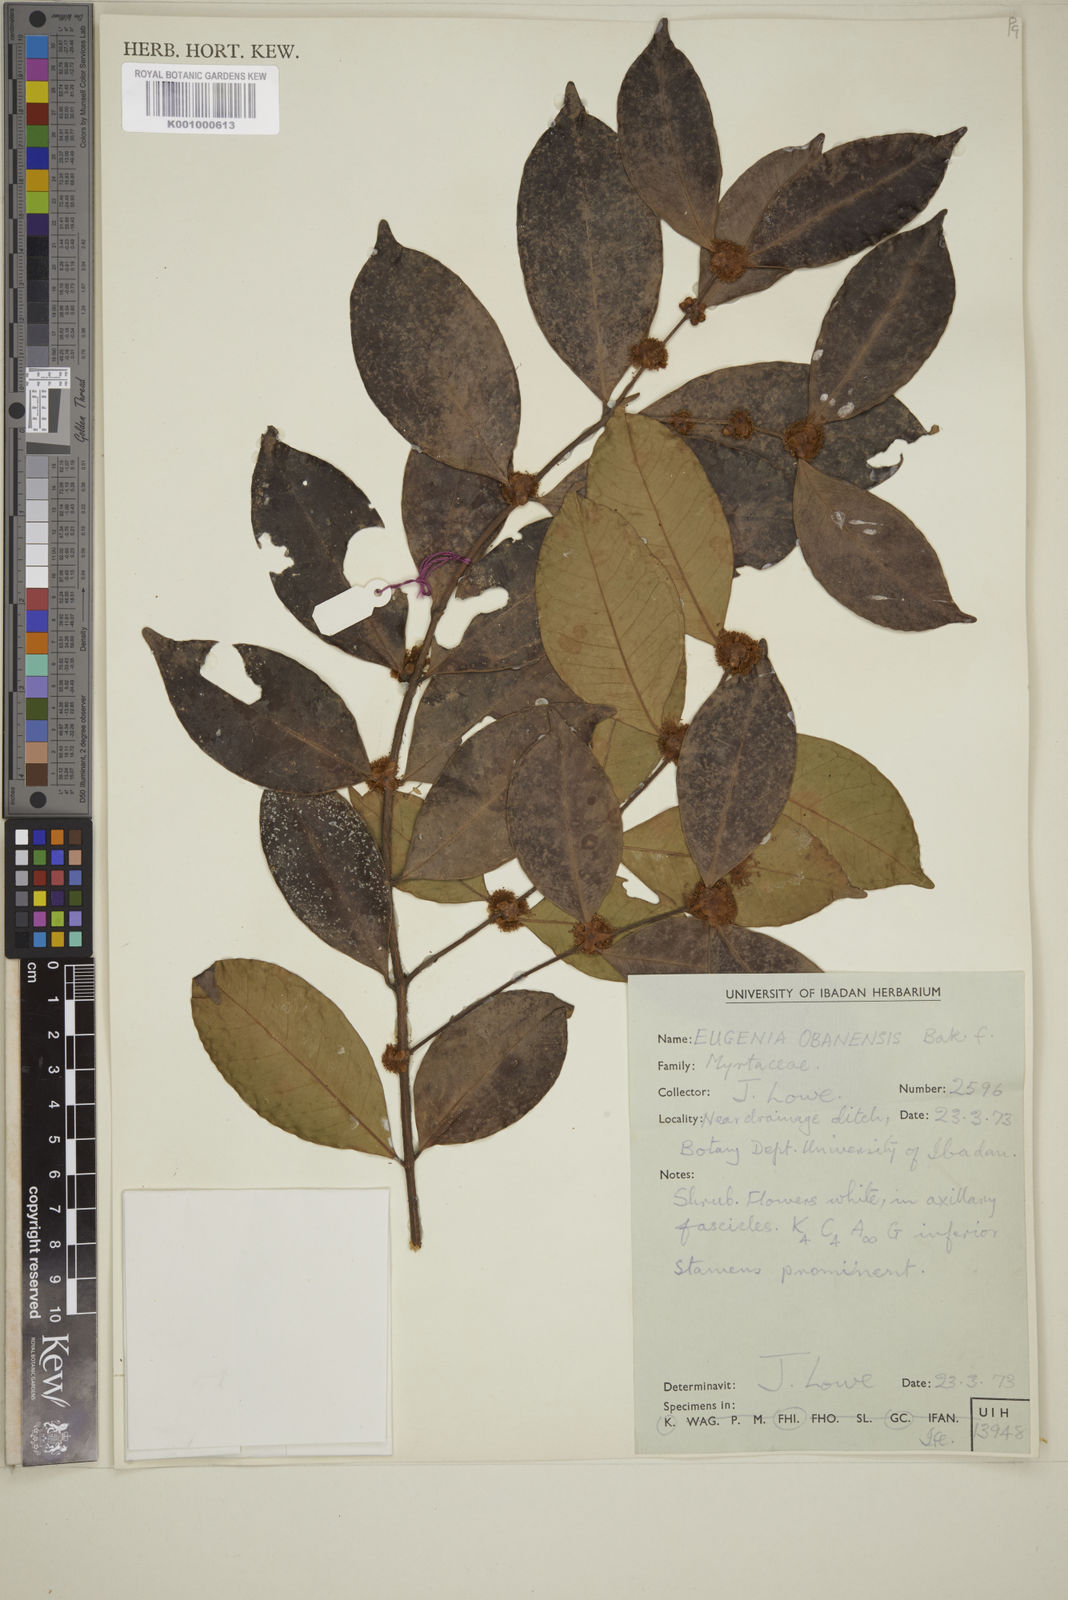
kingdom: Plantae
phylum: Tracheophyta
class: Magnoliopsida
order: Myrtales
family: Myrtaceae
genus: Eugenia
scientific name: Eugenia obanensis
